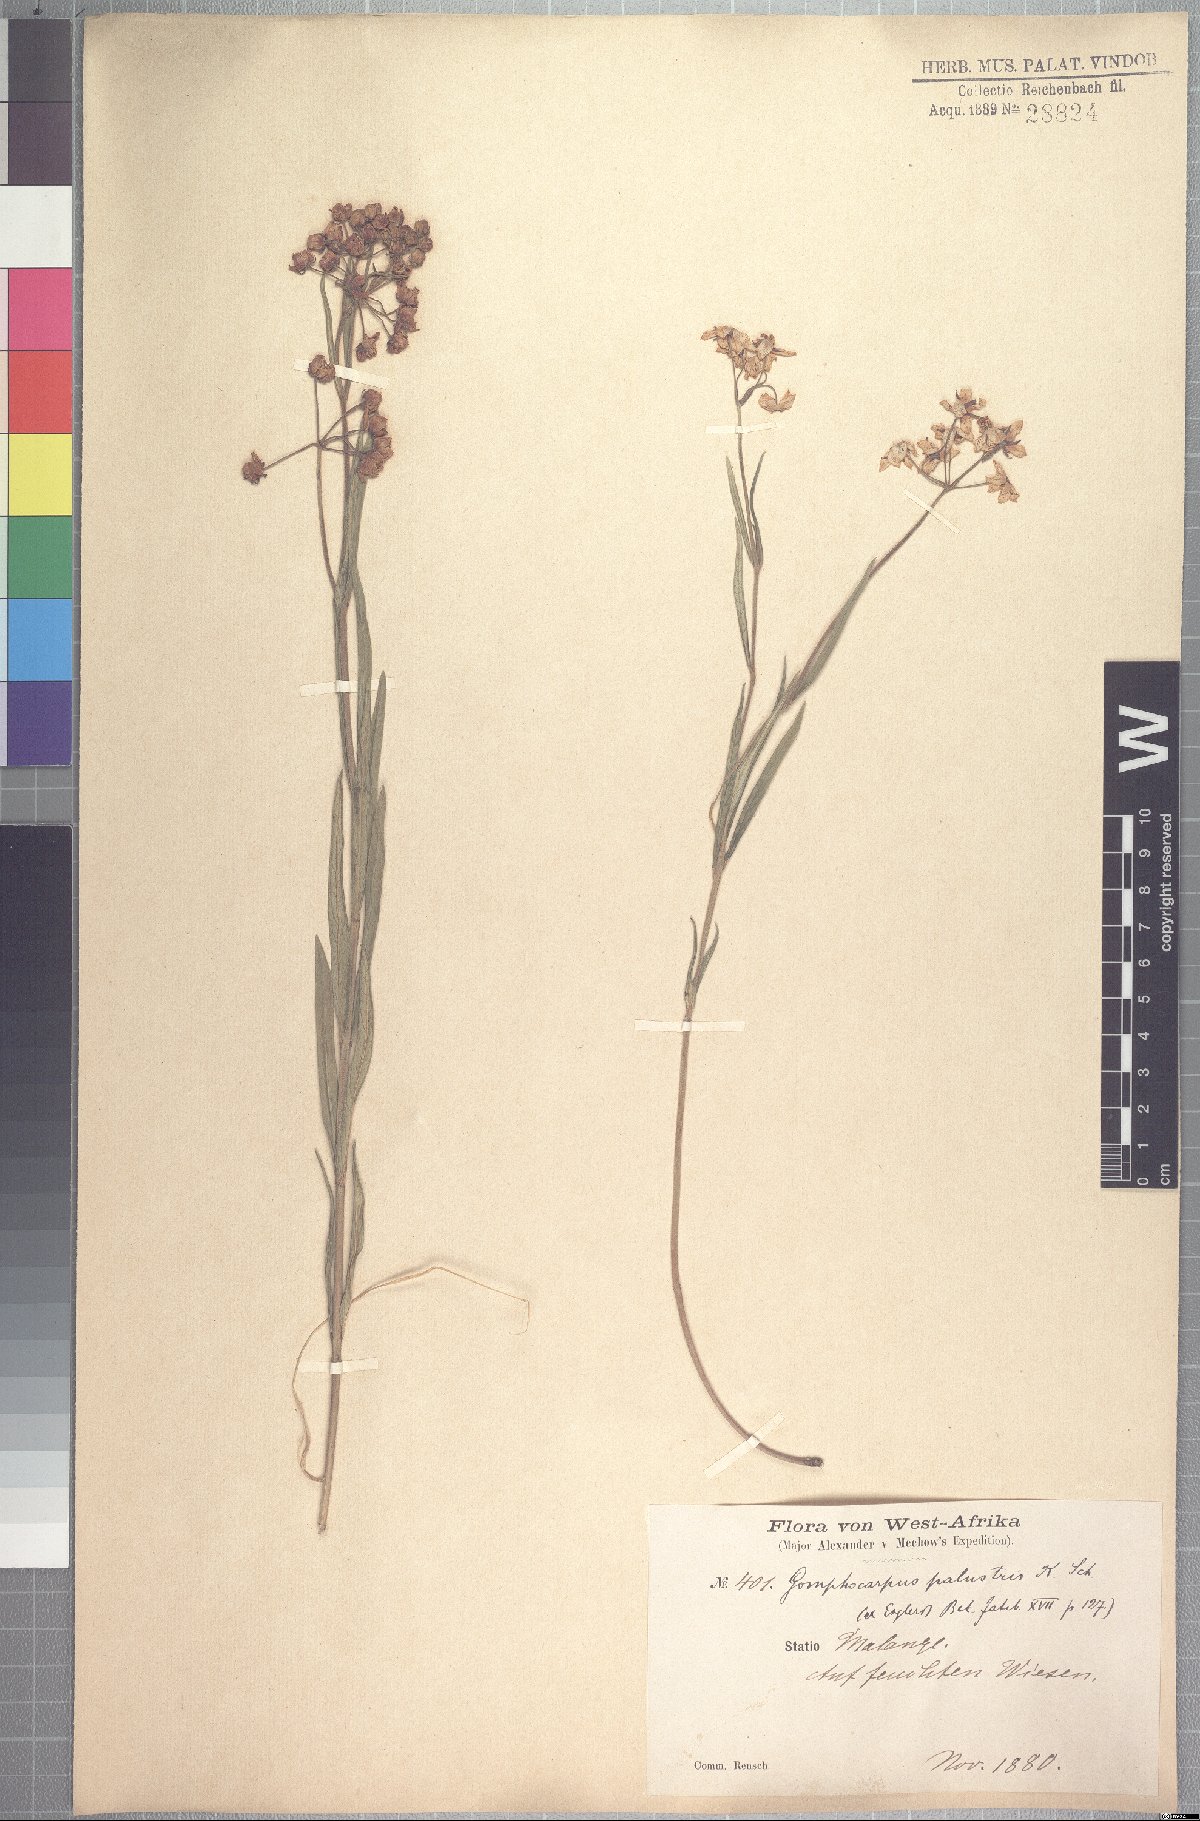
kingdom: Plantae
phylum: Tracheophyta
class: Magnoliopsida
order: Gentianales
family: Apocynaceae
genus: Asclepias
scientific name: Asclepias palustris
